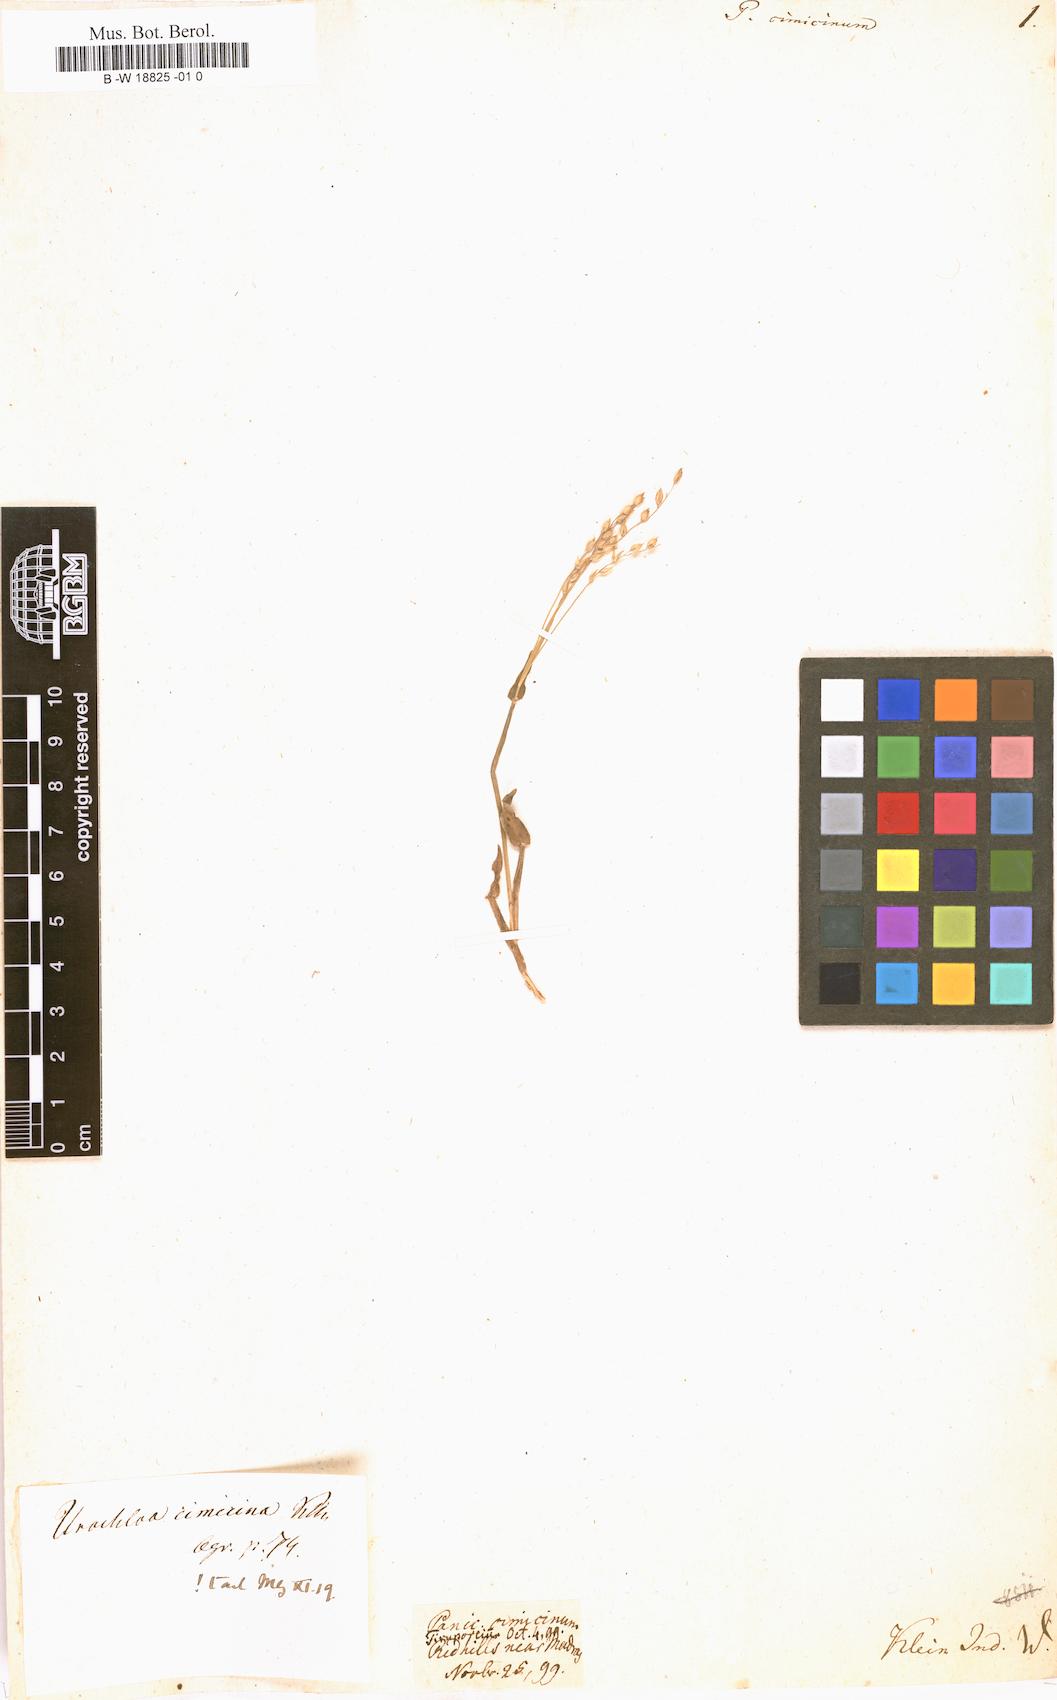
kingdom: Plantae
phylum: Tracheophyta
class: Liliopsida
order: Poales
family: Poaceae
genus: Alloteropsis
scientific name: Alloteropsis cimicina
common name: Summergrass
